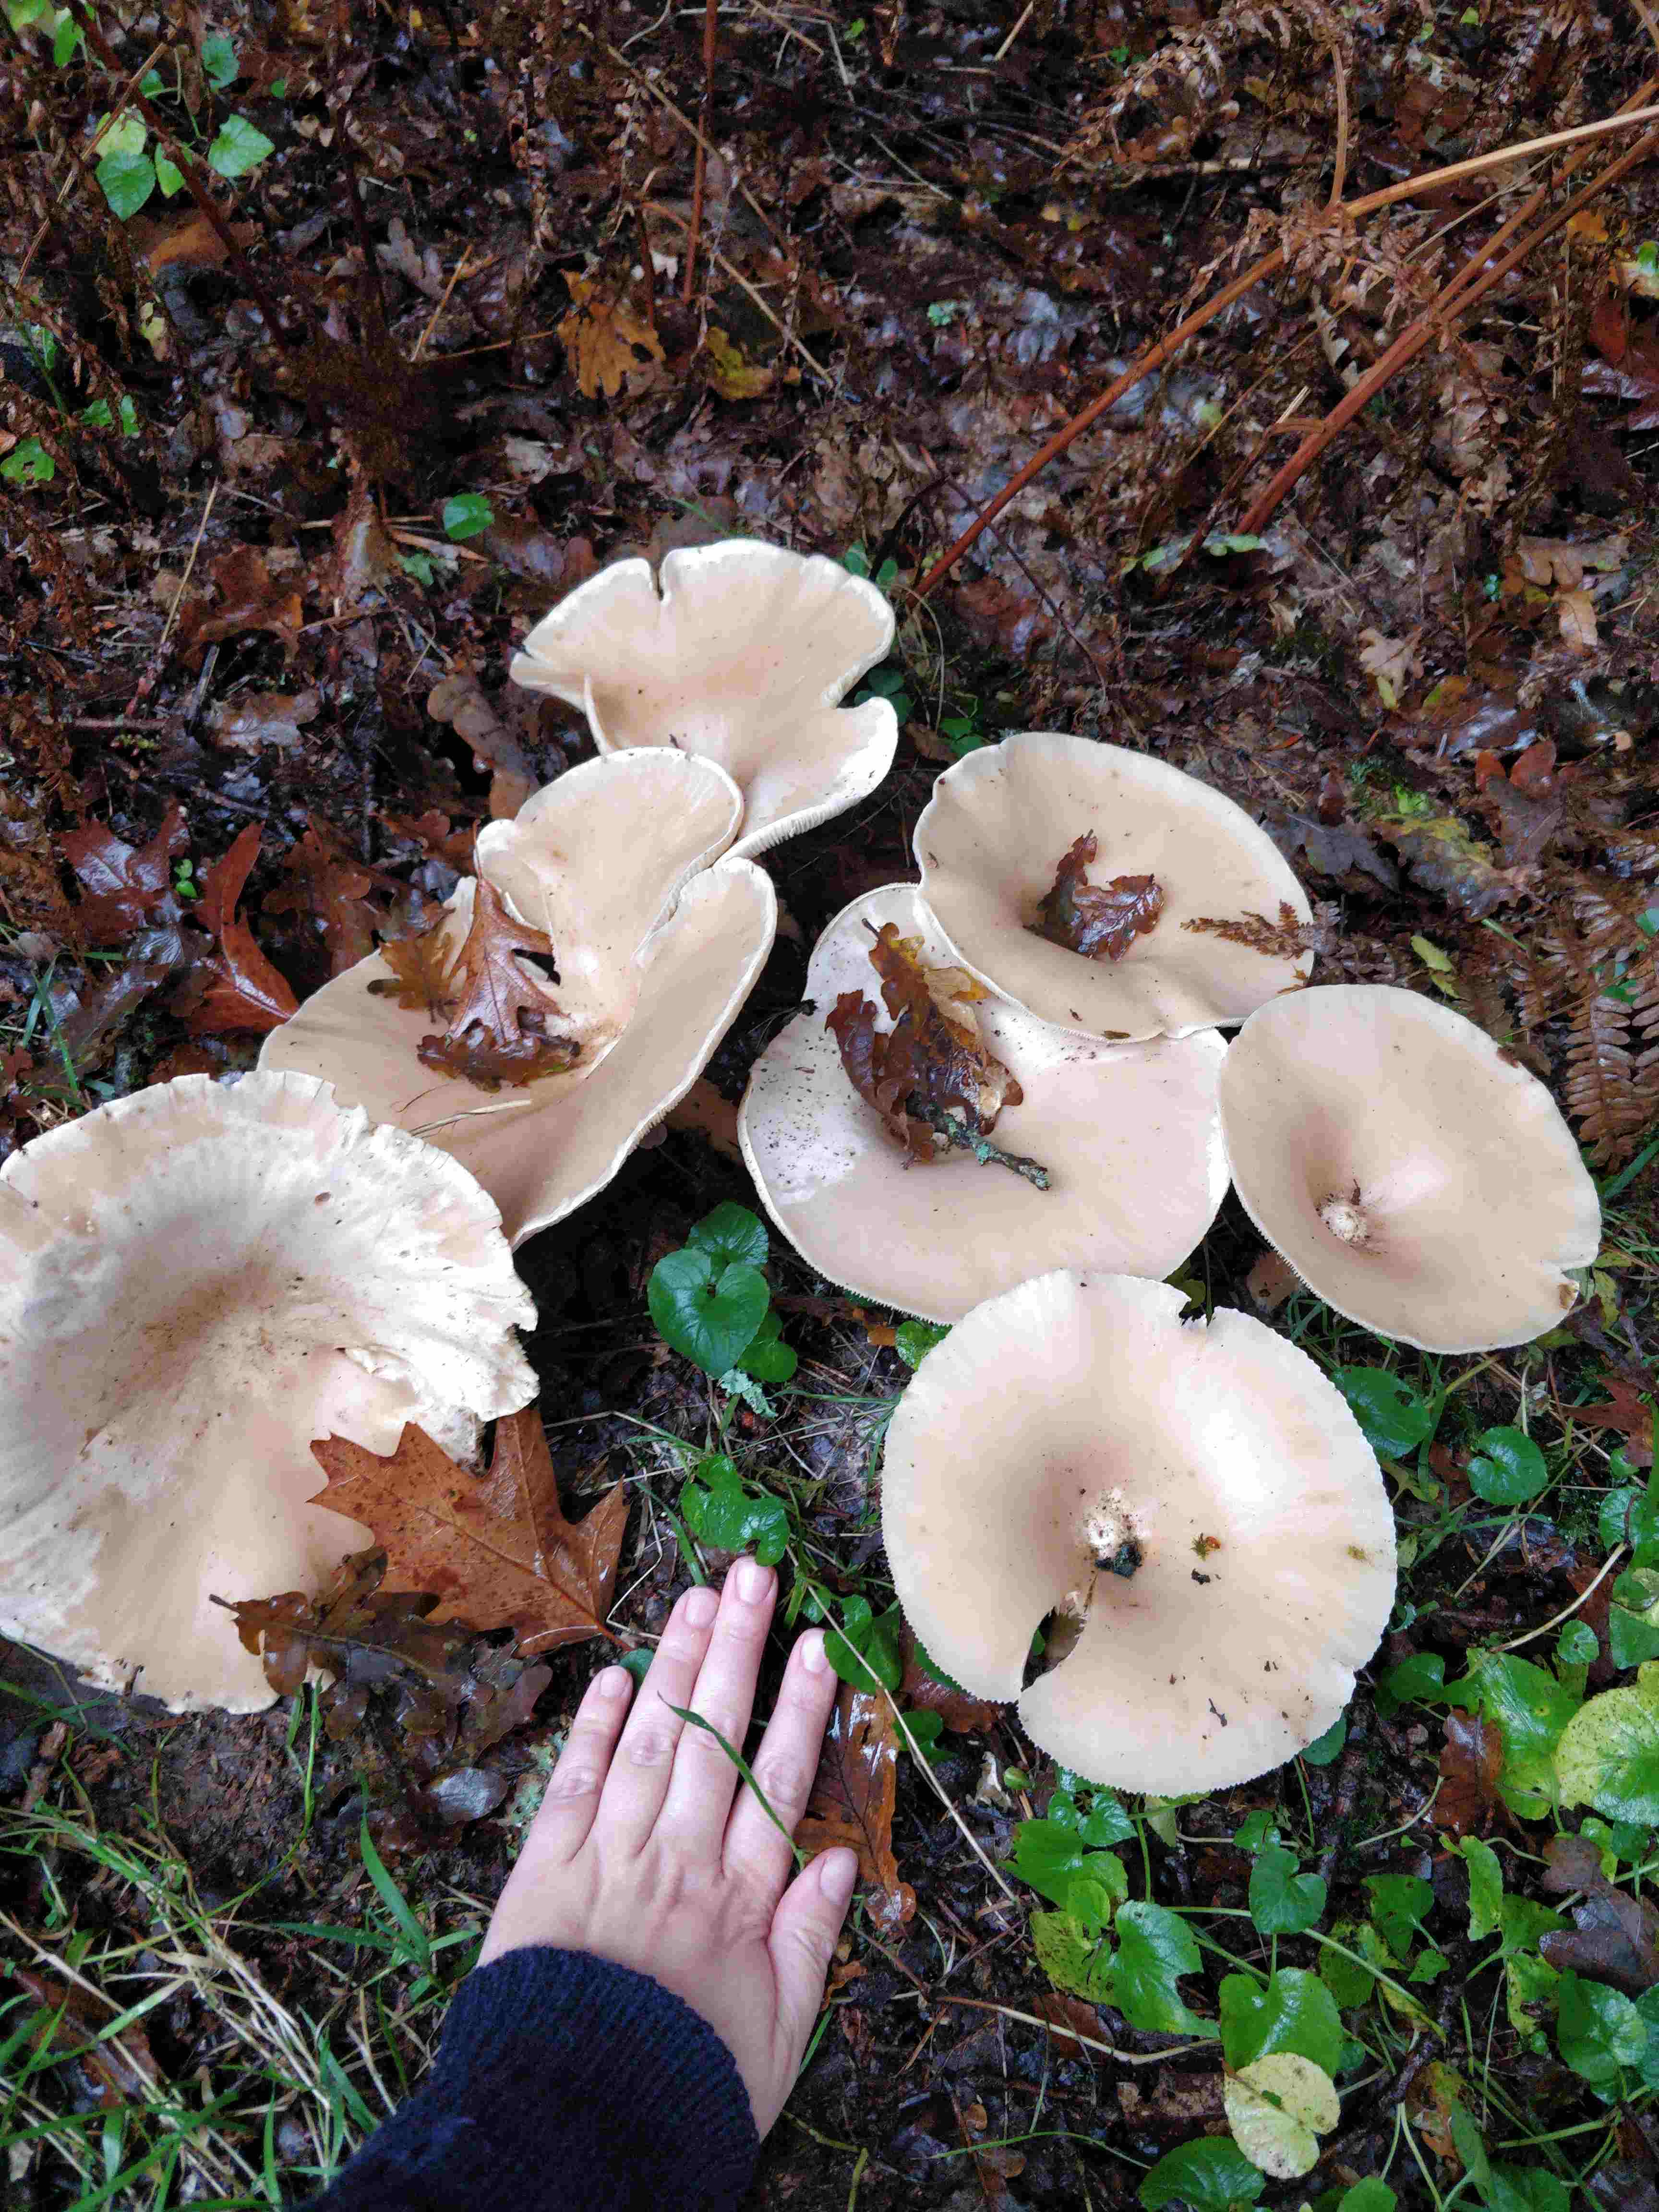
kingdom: Fungi
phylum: Basidiomycota
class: Agaricomycetes
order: Agaricales
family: Tricholomataceae
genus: Infundibulicybe
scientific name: Infundibulicybe geotropa
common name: stor tragthat
